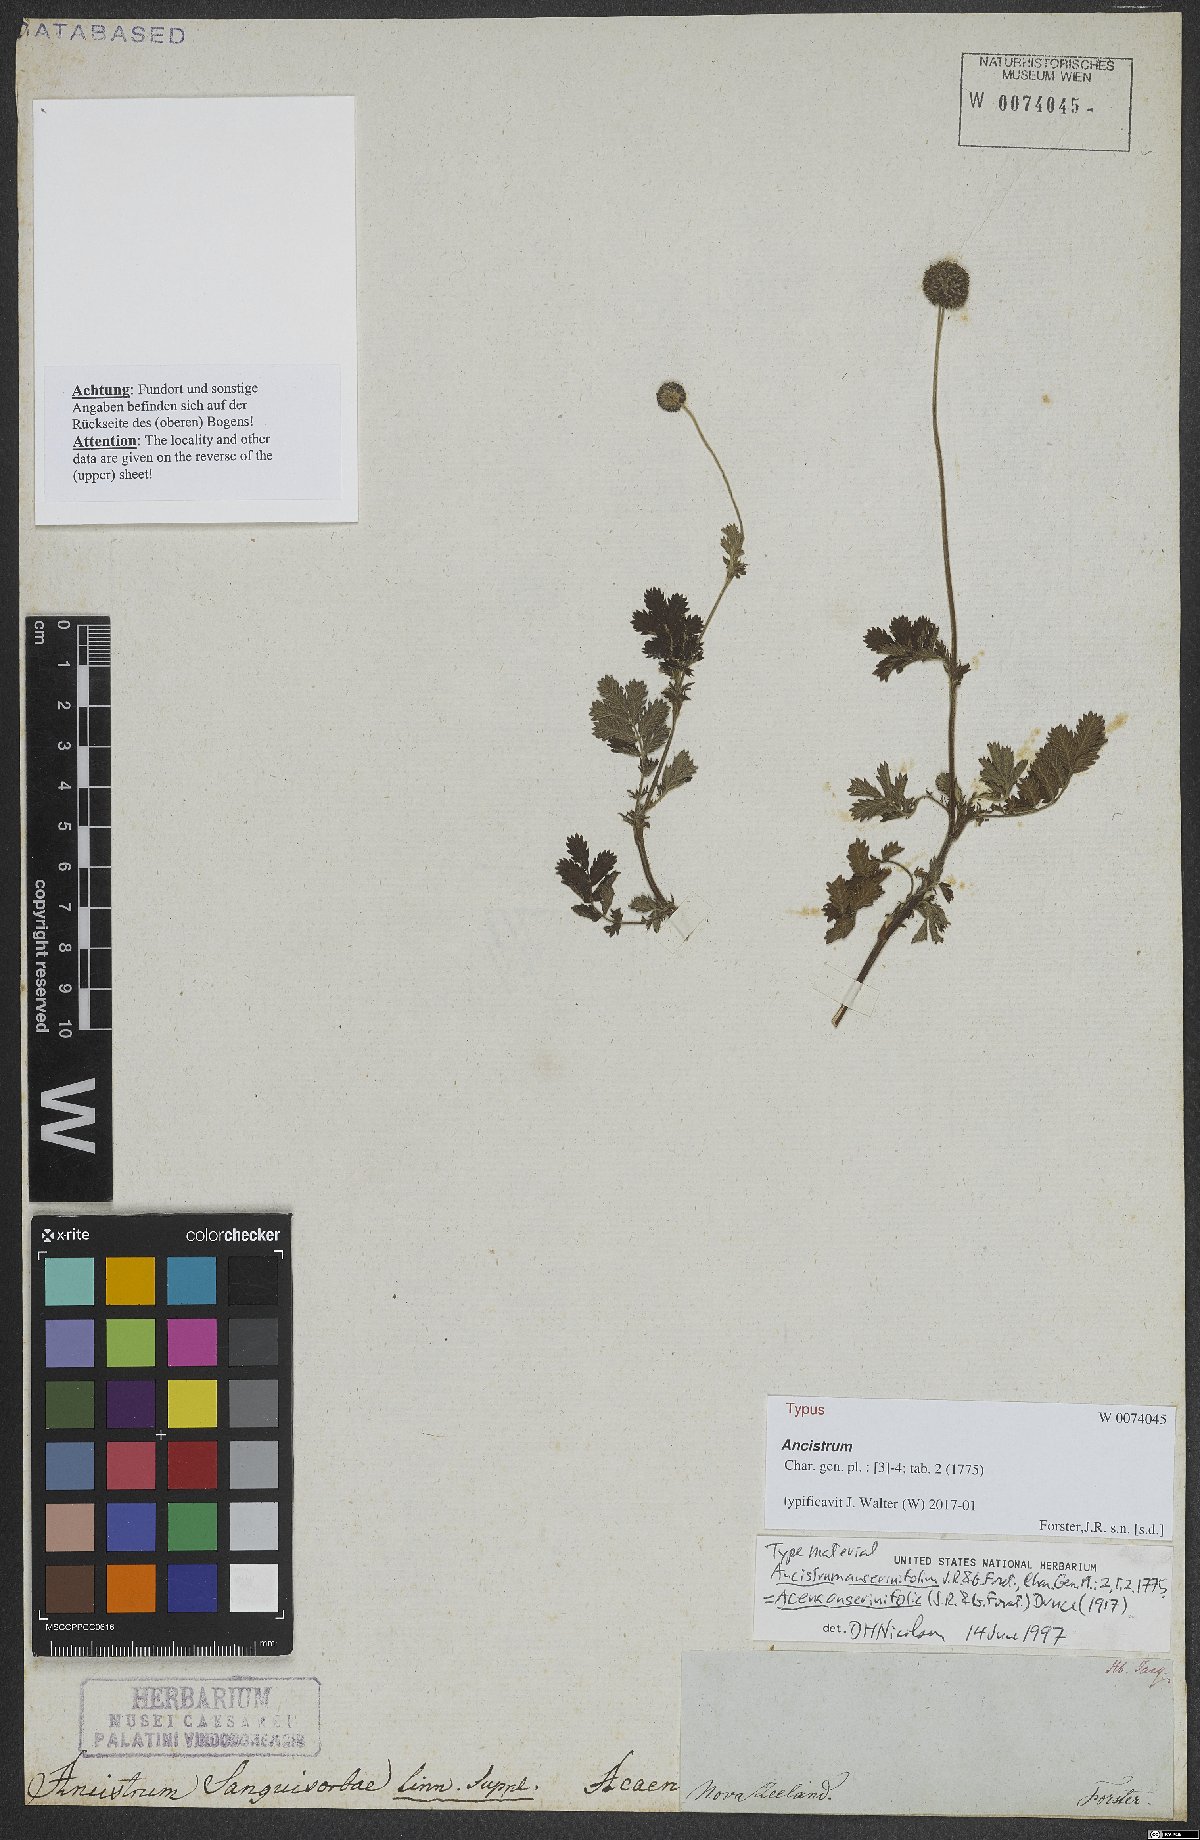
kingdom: Plantae
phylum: Tracheophyta
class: Magnoliopsida
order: Rosales
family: Rosaceae
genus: Acaena
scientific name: Acaena anserinifolia
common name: Bronze pirri-pirri-bur
